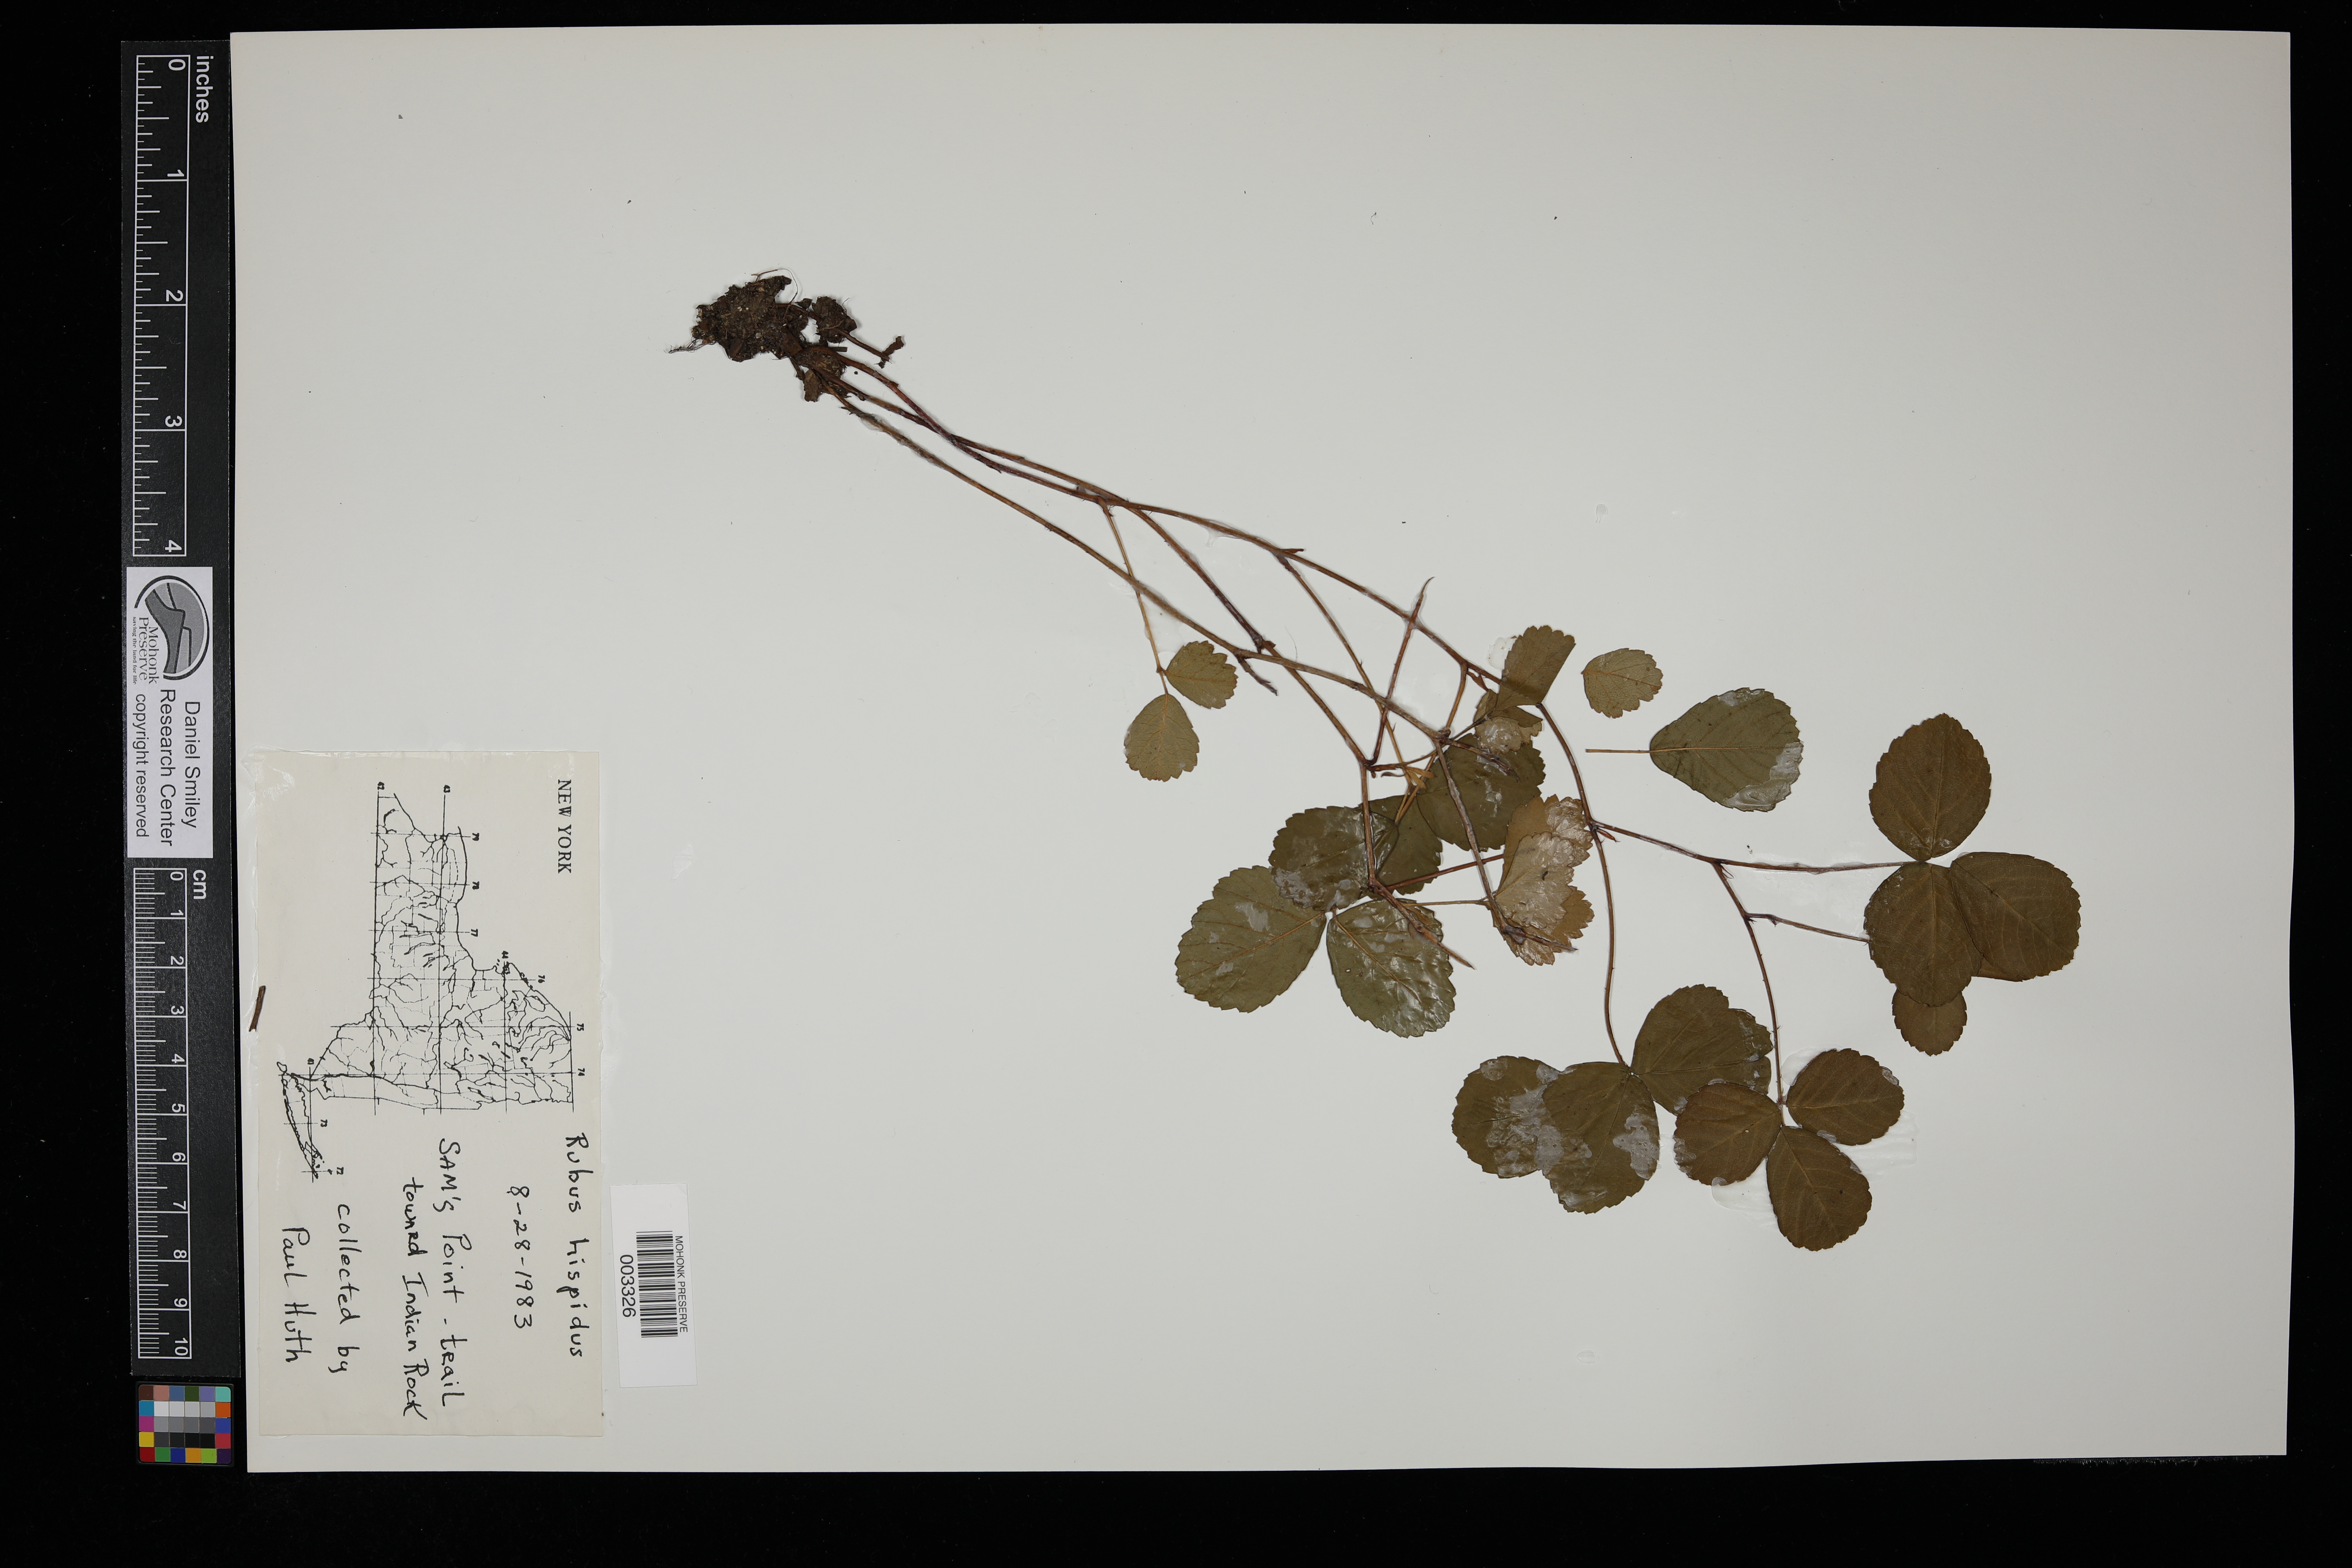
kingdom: Plantae
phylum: Tracheophyta
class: Magnoliopsida
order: Rosales
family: Rosaceae
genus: Rubus
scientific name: Rubus hispidus
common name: Running blackberry
